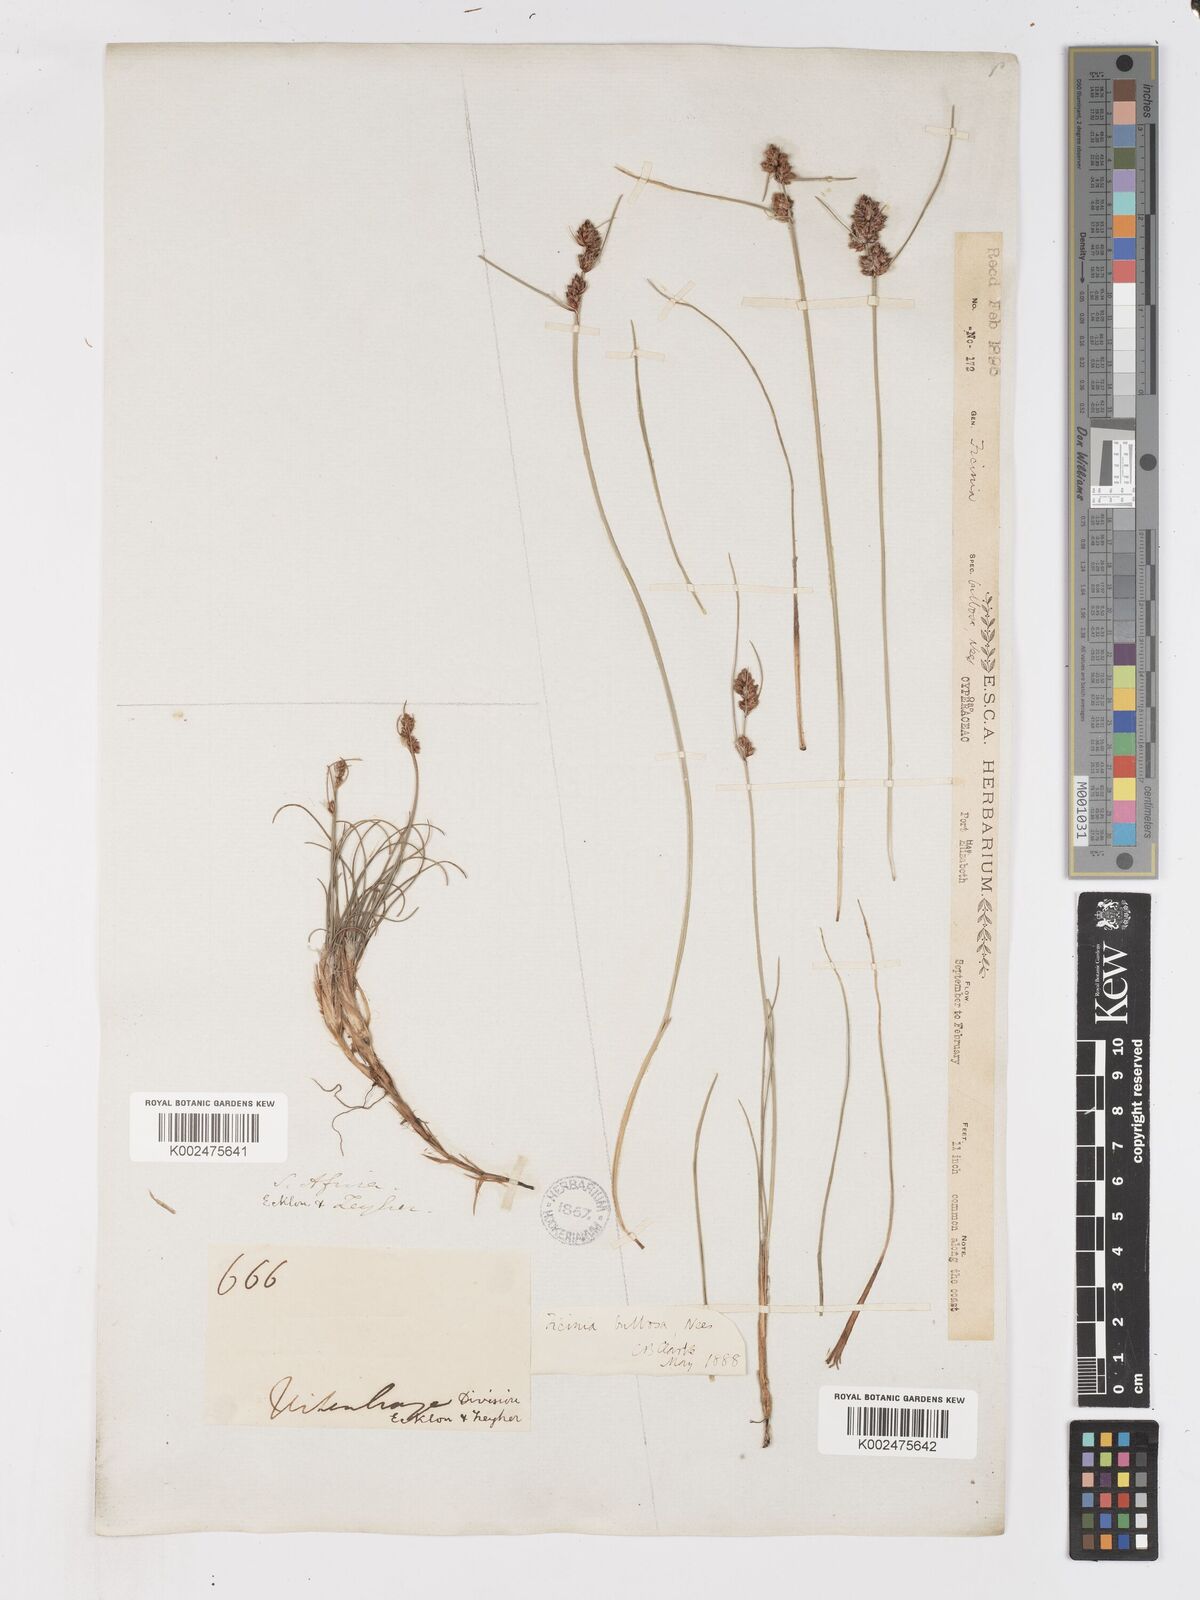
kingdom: Plantae
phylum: Tracheophyta
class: Liliopsida
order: Poales
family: Cyperaceae
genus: Ficinia
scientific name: Ficinia bulbosa
